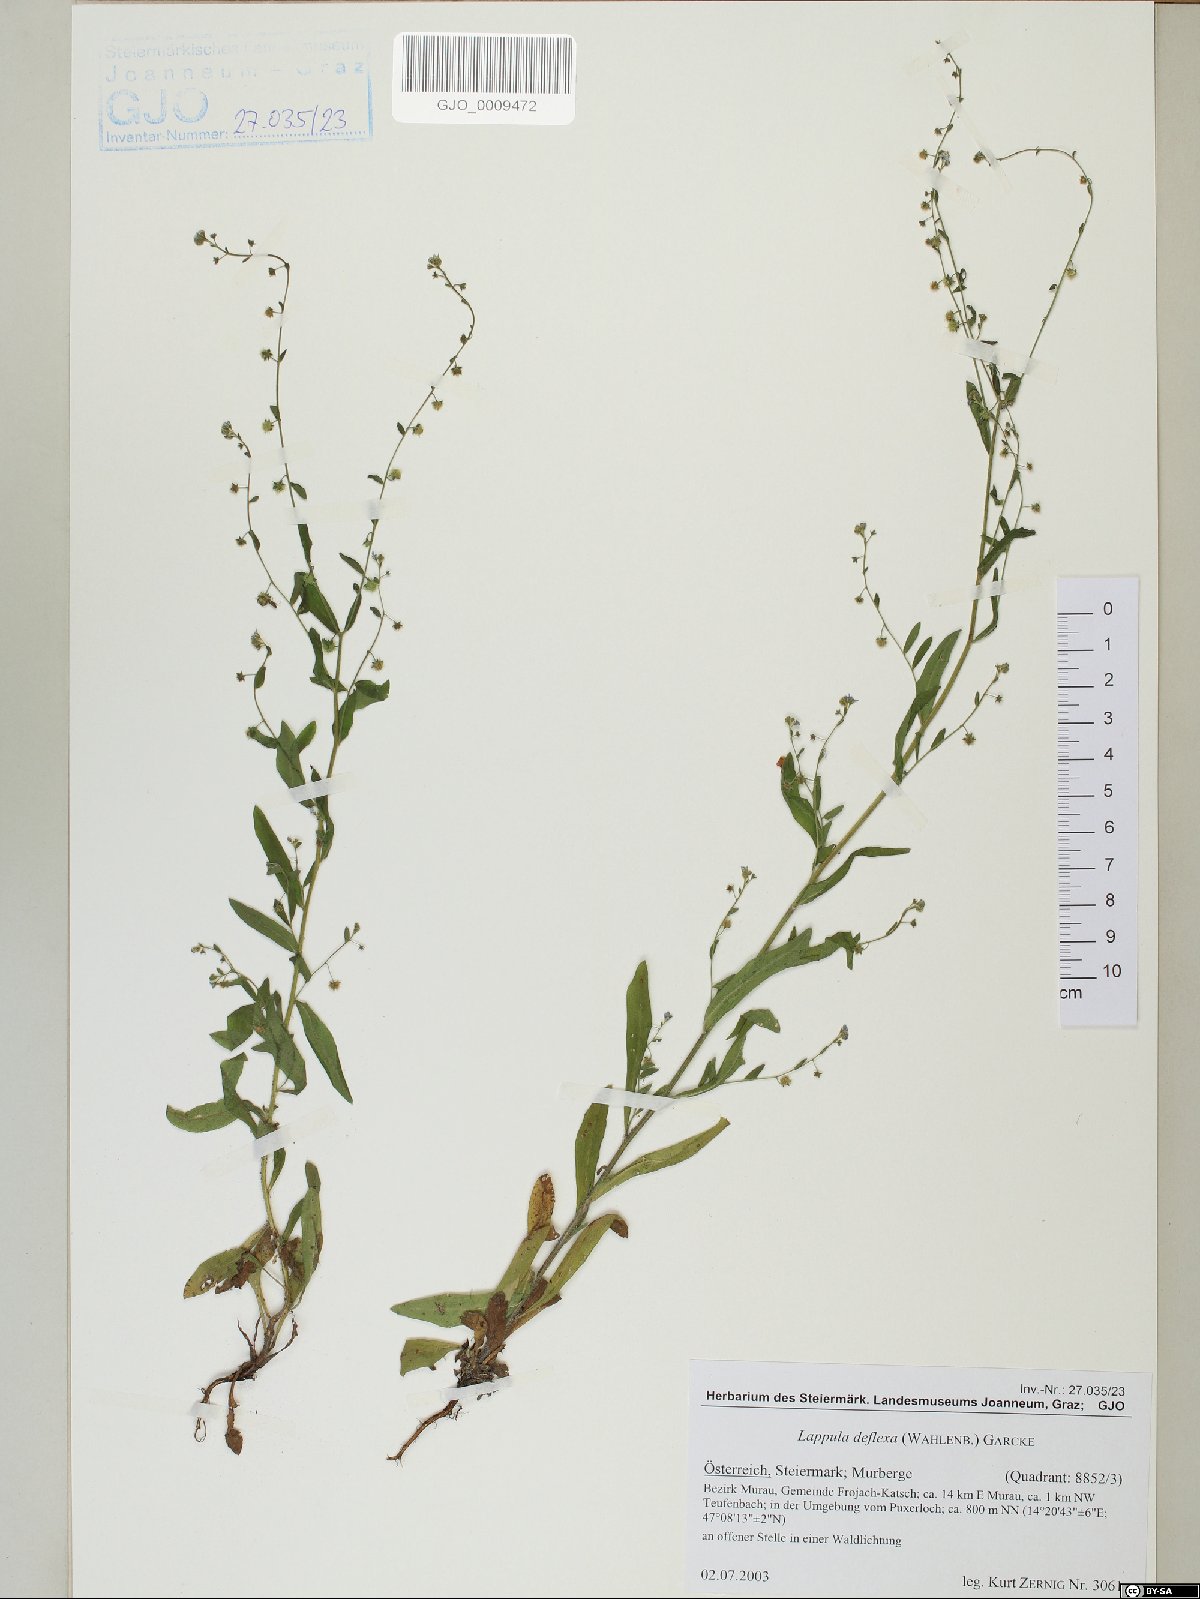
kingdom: Plantae
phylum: Tracheophyta
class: Magnoliopsida
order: Boraginales
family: Boraginaceae
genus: Hackelia
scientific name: Hackelia deflexa
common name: Nodding stickseed
